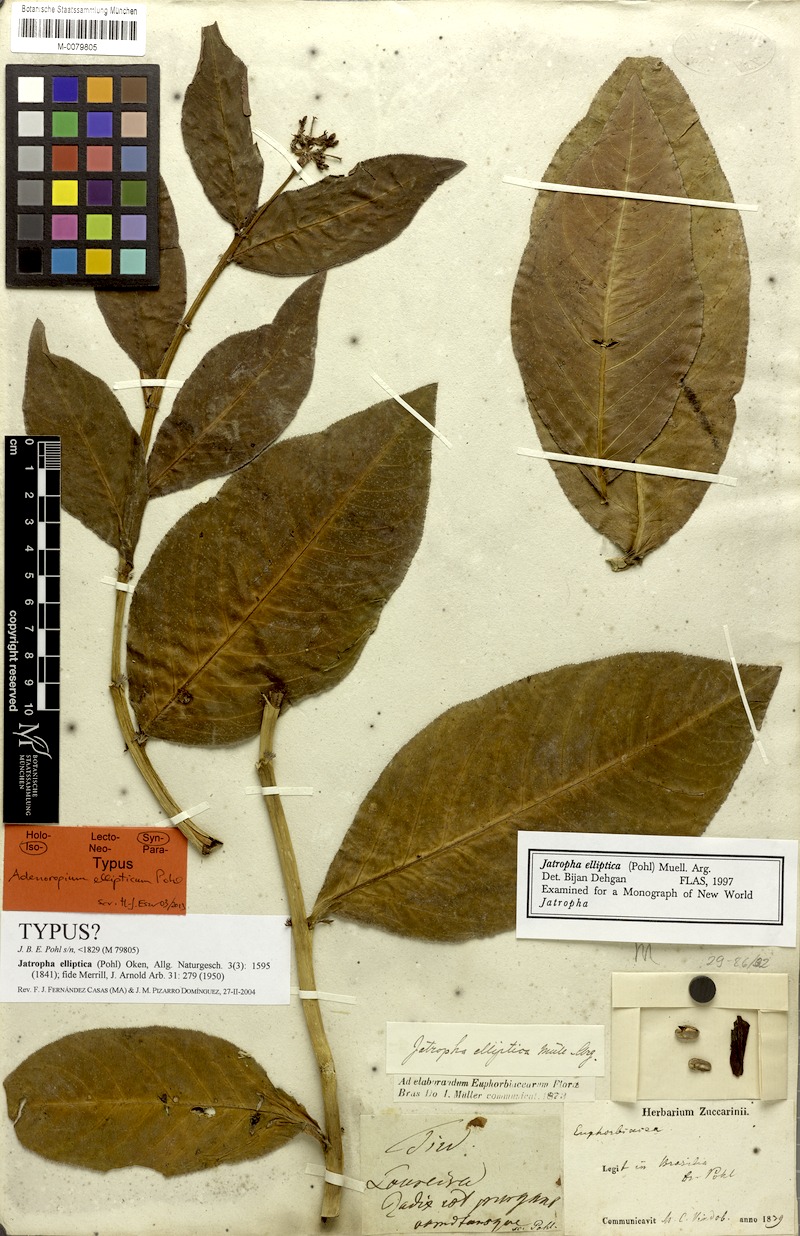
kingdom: Plantae
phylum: Tracheophyta
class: Magnoliopsida
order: Malpighiales
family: Euphorbiaceae
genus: Jatropha
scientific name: Jatropha elliptica
